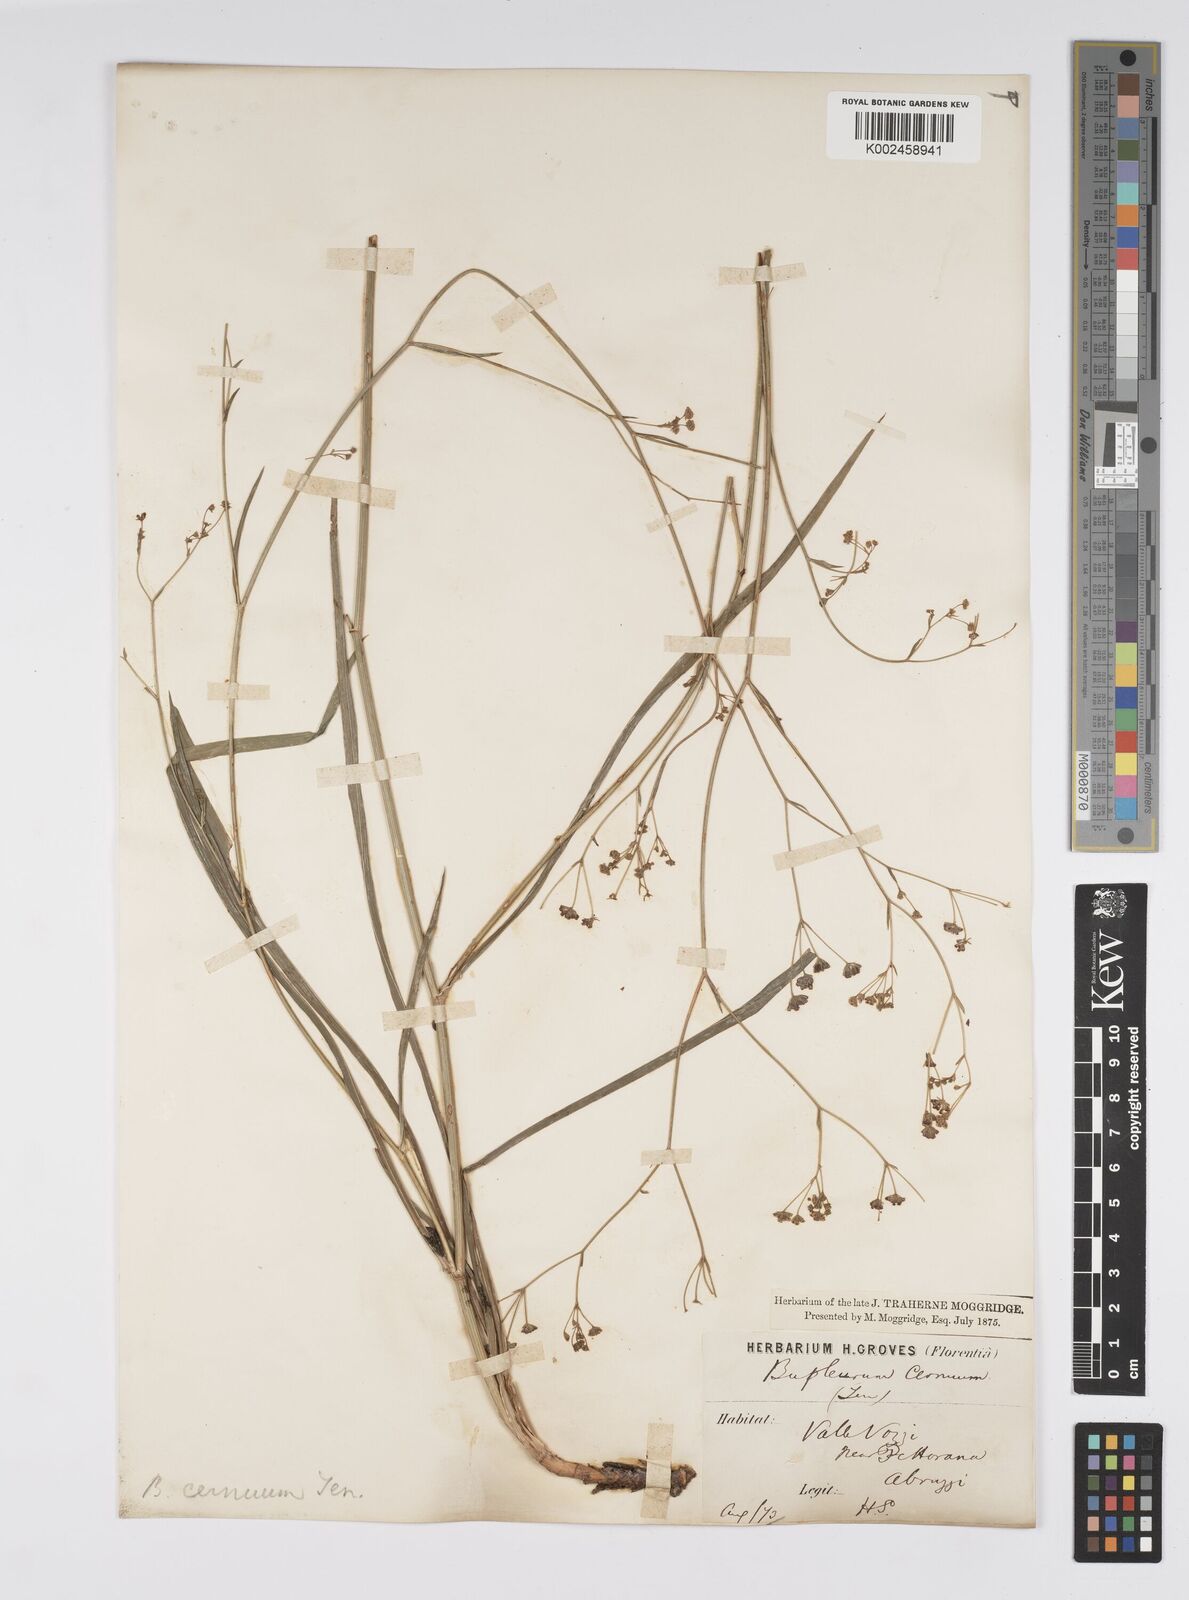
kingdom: Plantae
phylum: Tracheophyta
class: Magnoliopsida
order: Apiales
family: Apiaceae
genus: Bupleurum
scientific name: Bupleurum falcatum
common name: Sickle-leaved hare's-ear
